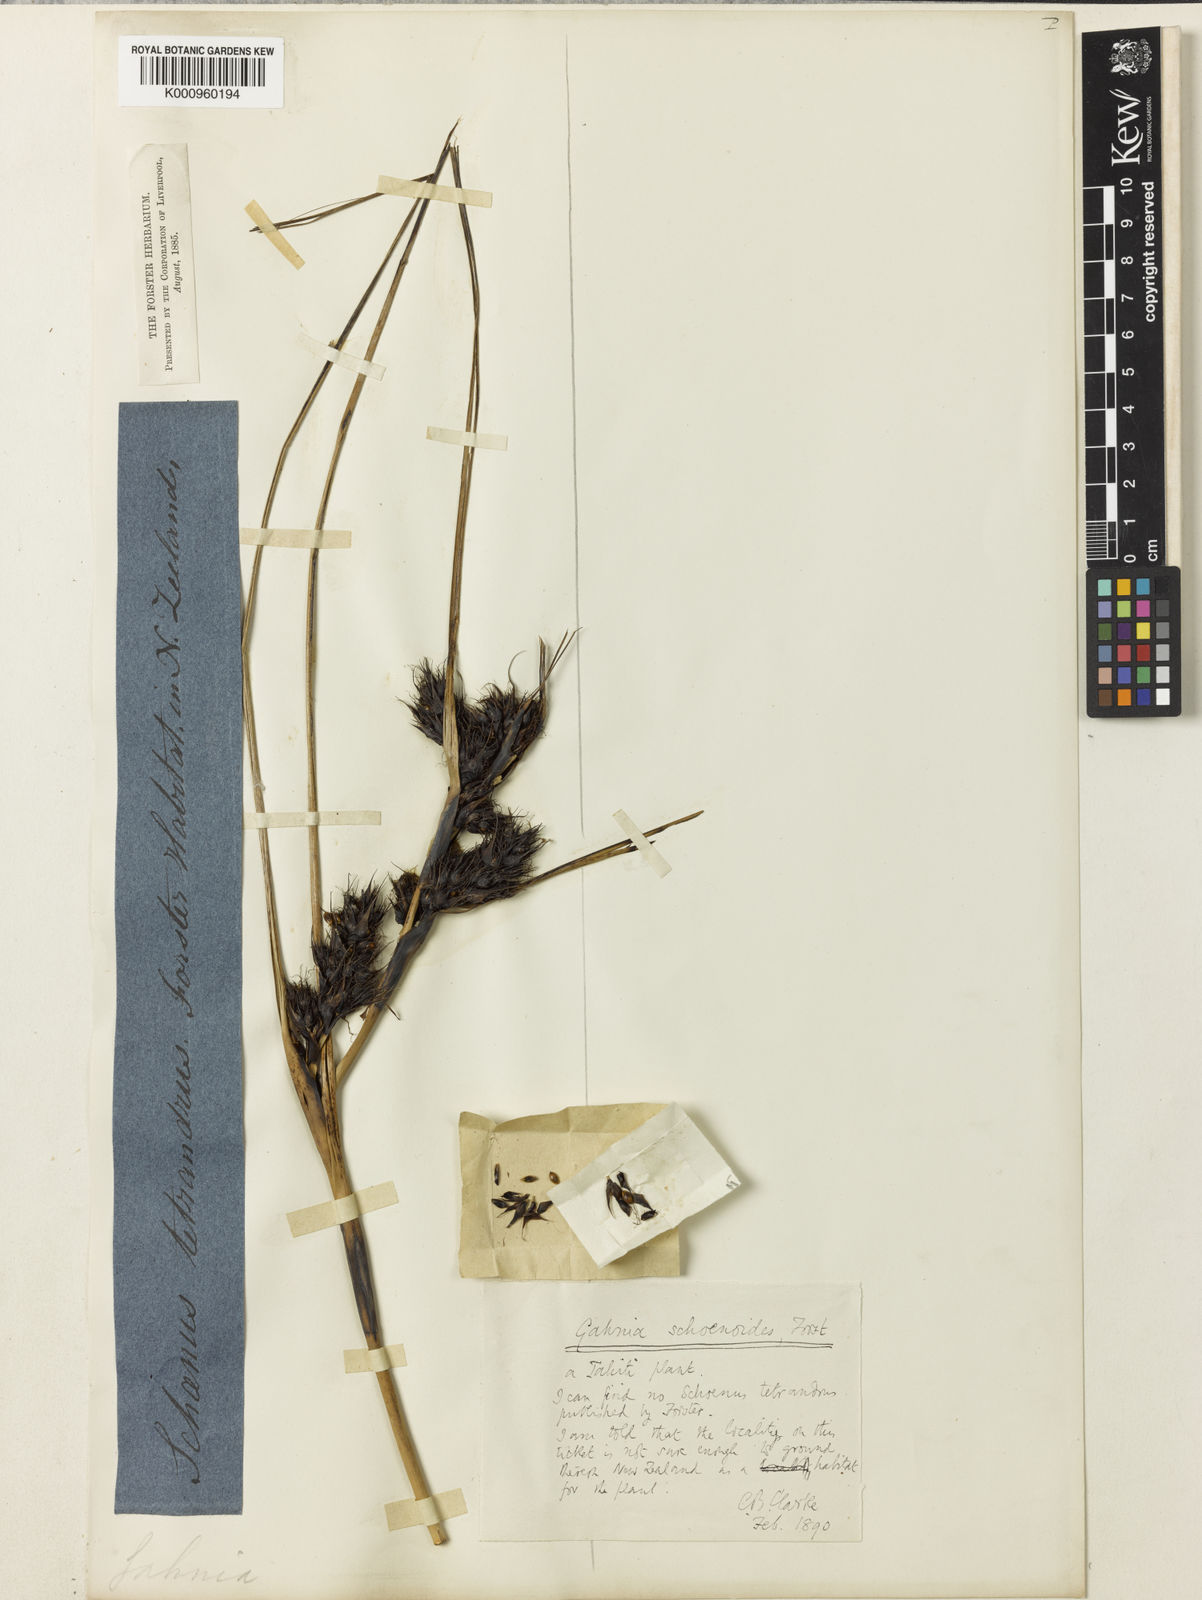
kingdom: Plantae
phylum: Tracheophyta
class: Liliopsida
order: Poales
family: Cyperaceae
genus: Gahnia
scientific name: Gahnia schoenoides
